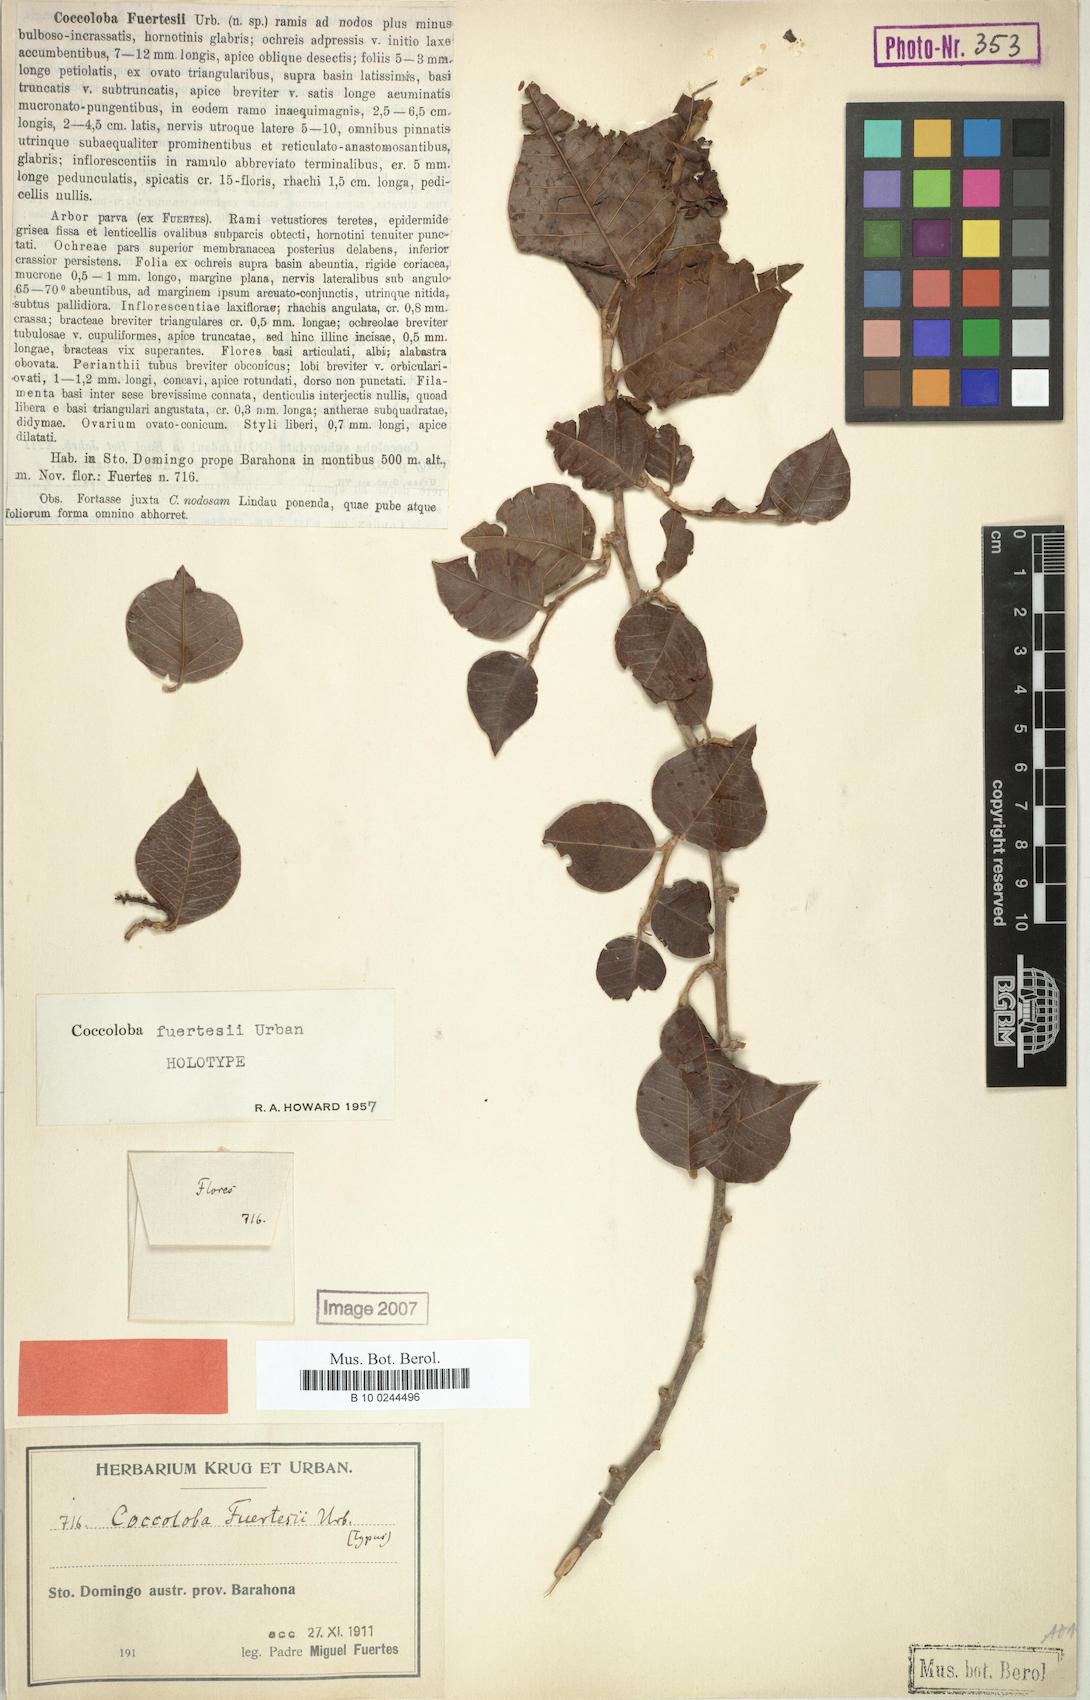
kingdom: Plantae
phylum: Tracheophyta
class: Magnoliopsida
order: Caryophyllales
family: Polygonaceae
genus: Coccoloba
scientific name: Coccoloba fuertesii
